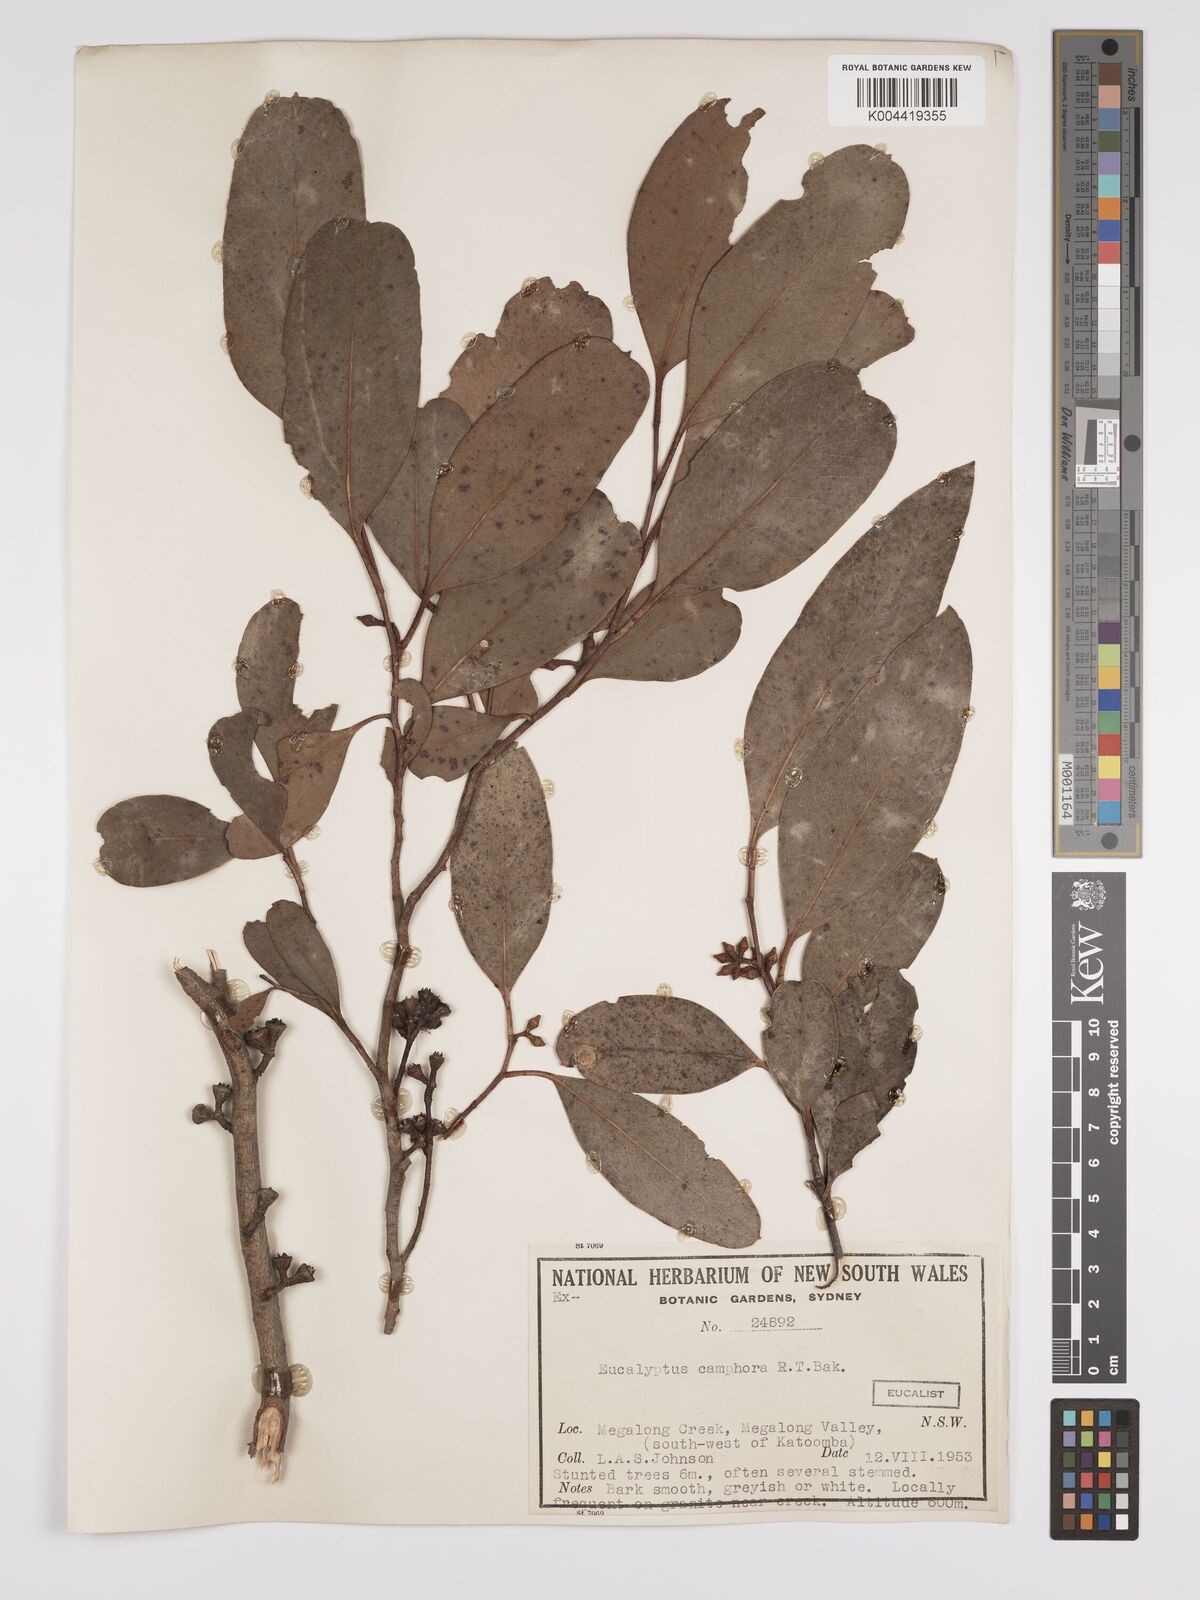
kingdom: Plantae
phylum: Tracheophyta
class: Magnoliopsida
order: Myrtales
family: Myrtaceae
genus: Eucalyptus
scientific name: Eucalyptus camphora
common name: Mountain swamp gum
